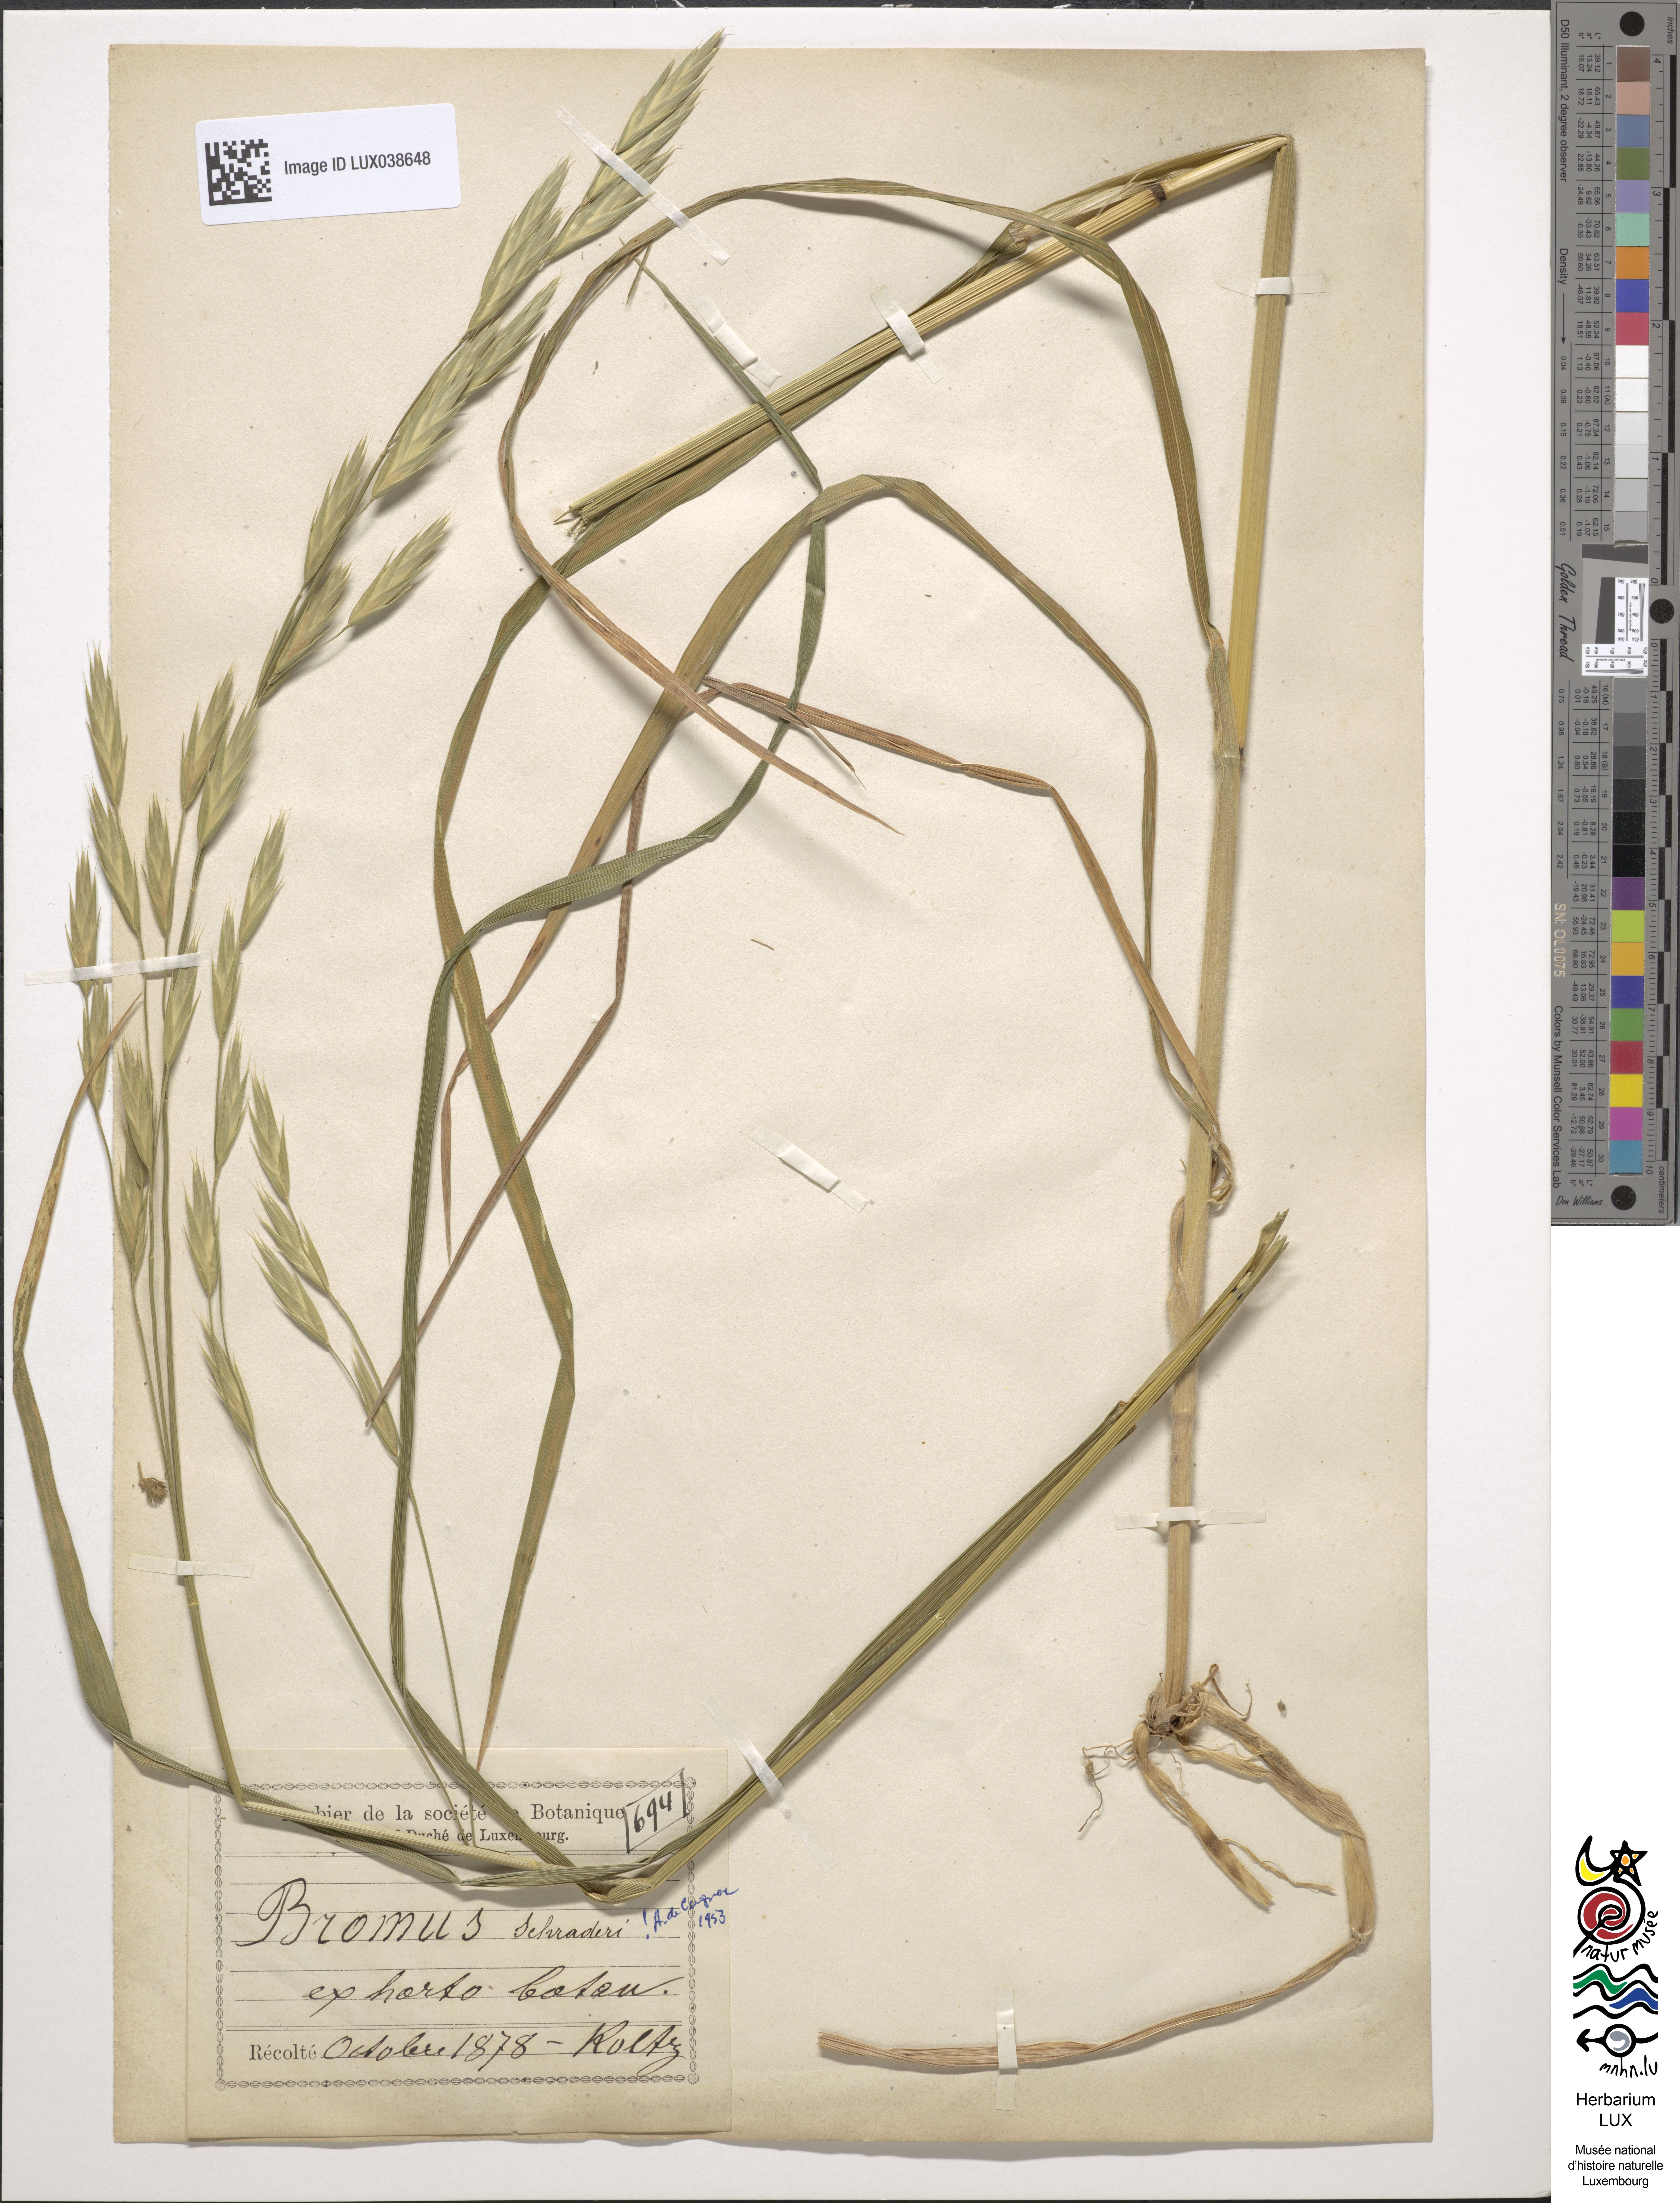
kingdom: Plantae
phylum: Tracheophyta
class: Liliopsida
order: Poales
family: Poaceae
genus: Bromus
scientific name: Bromus catharticus
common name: Rescuegrass
